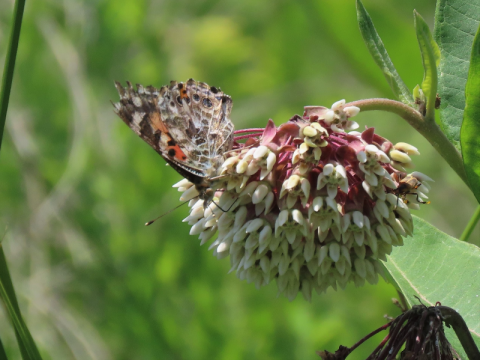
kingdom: Animalia
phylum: Arthropoda
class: Insecta
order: Lepidoptera
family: Nymphalidae
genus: Vanessa
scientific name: Vanessa cardui
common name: Painted Lady
